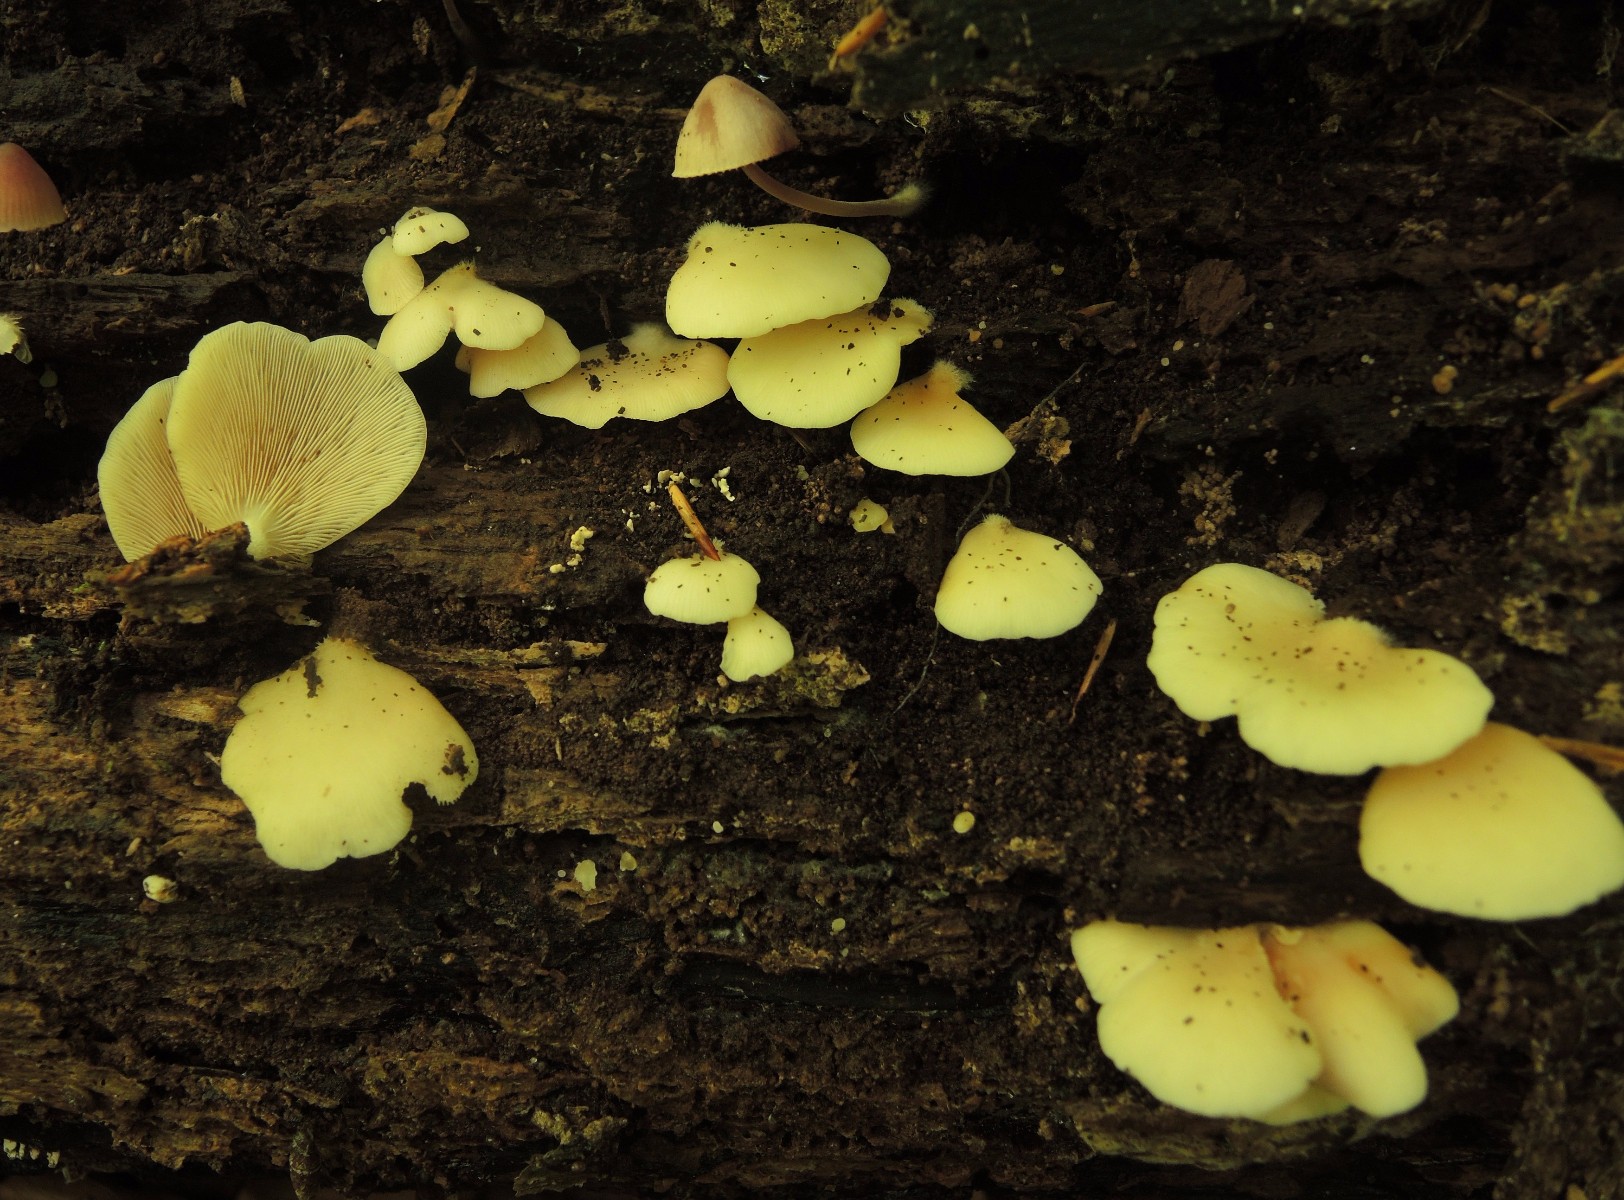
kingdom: Fungi
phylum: Basidiomycota
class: Agaricomycetes
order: Agaricales
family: Crepidotaceae
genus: Crepidotus
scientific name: Crepidotus applanatus
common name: tvefarvet muslingesvamp
